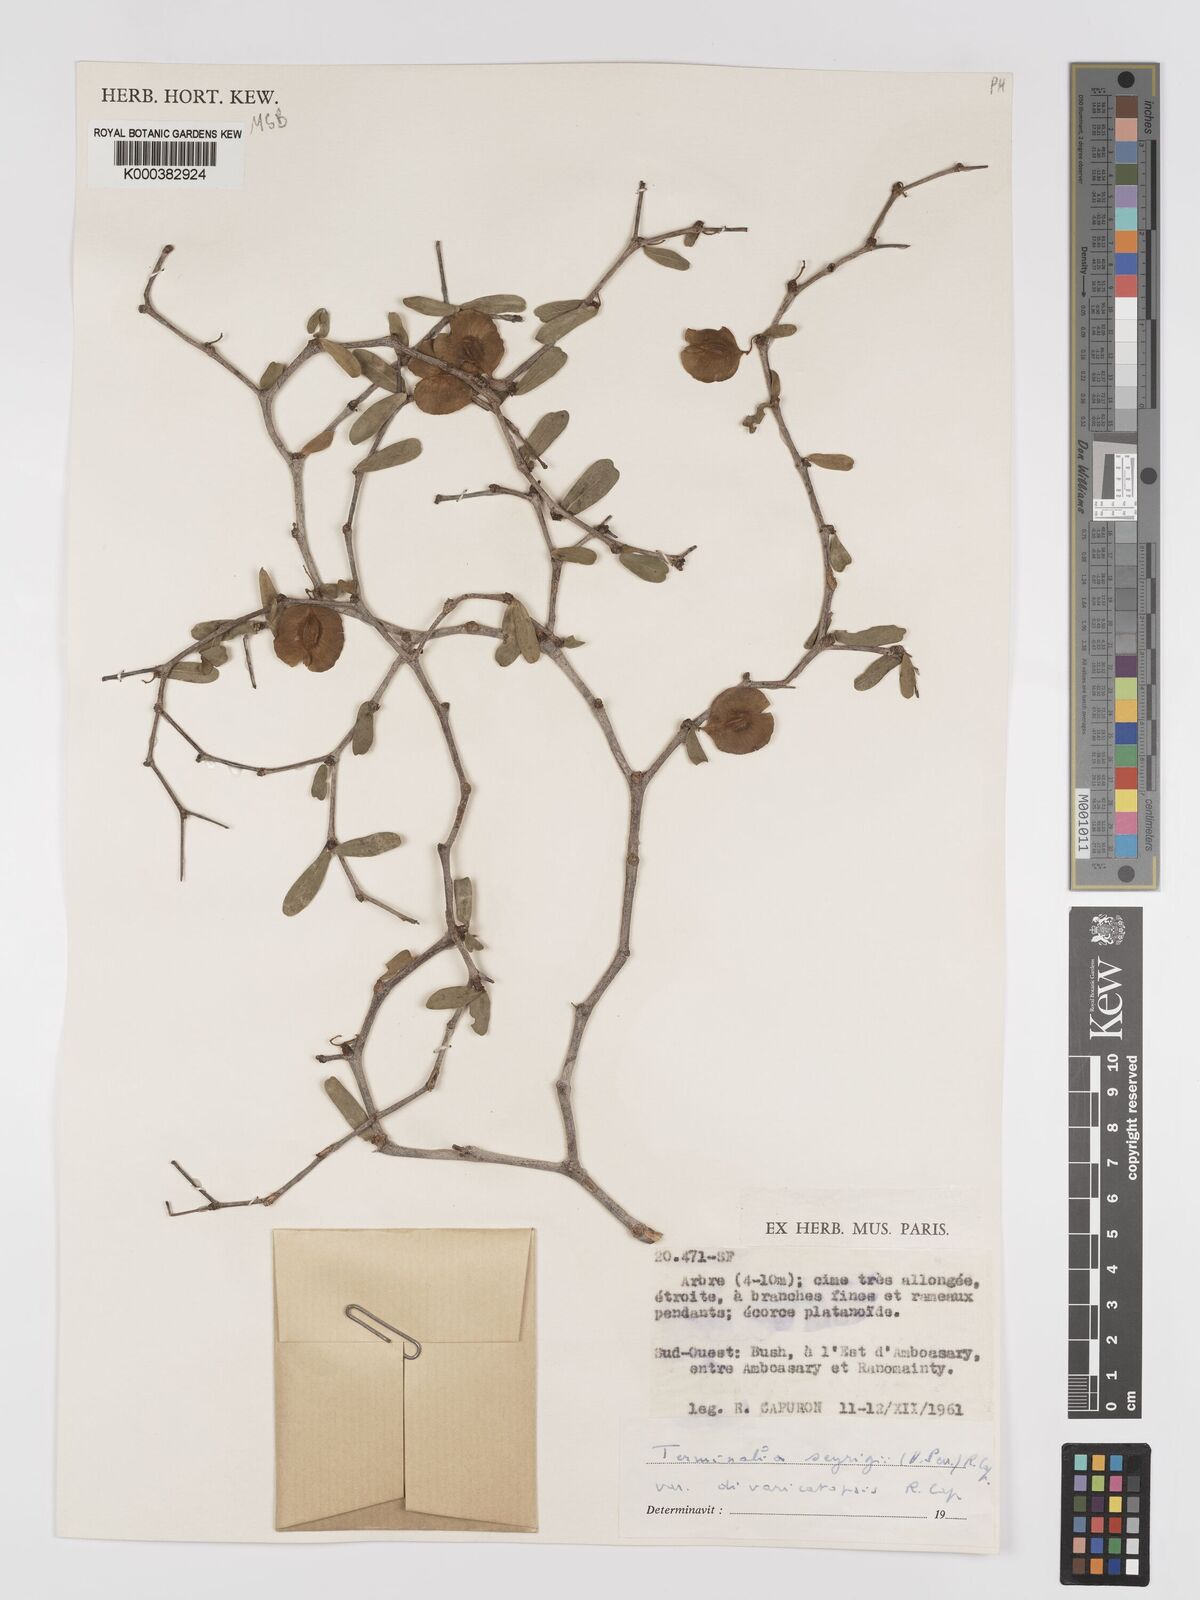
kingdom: Plantae
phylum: Tracheophyta
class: Magnoliopsida
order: Myrtales
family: Combretaceae
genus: Terminalia
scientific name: Terminalia
